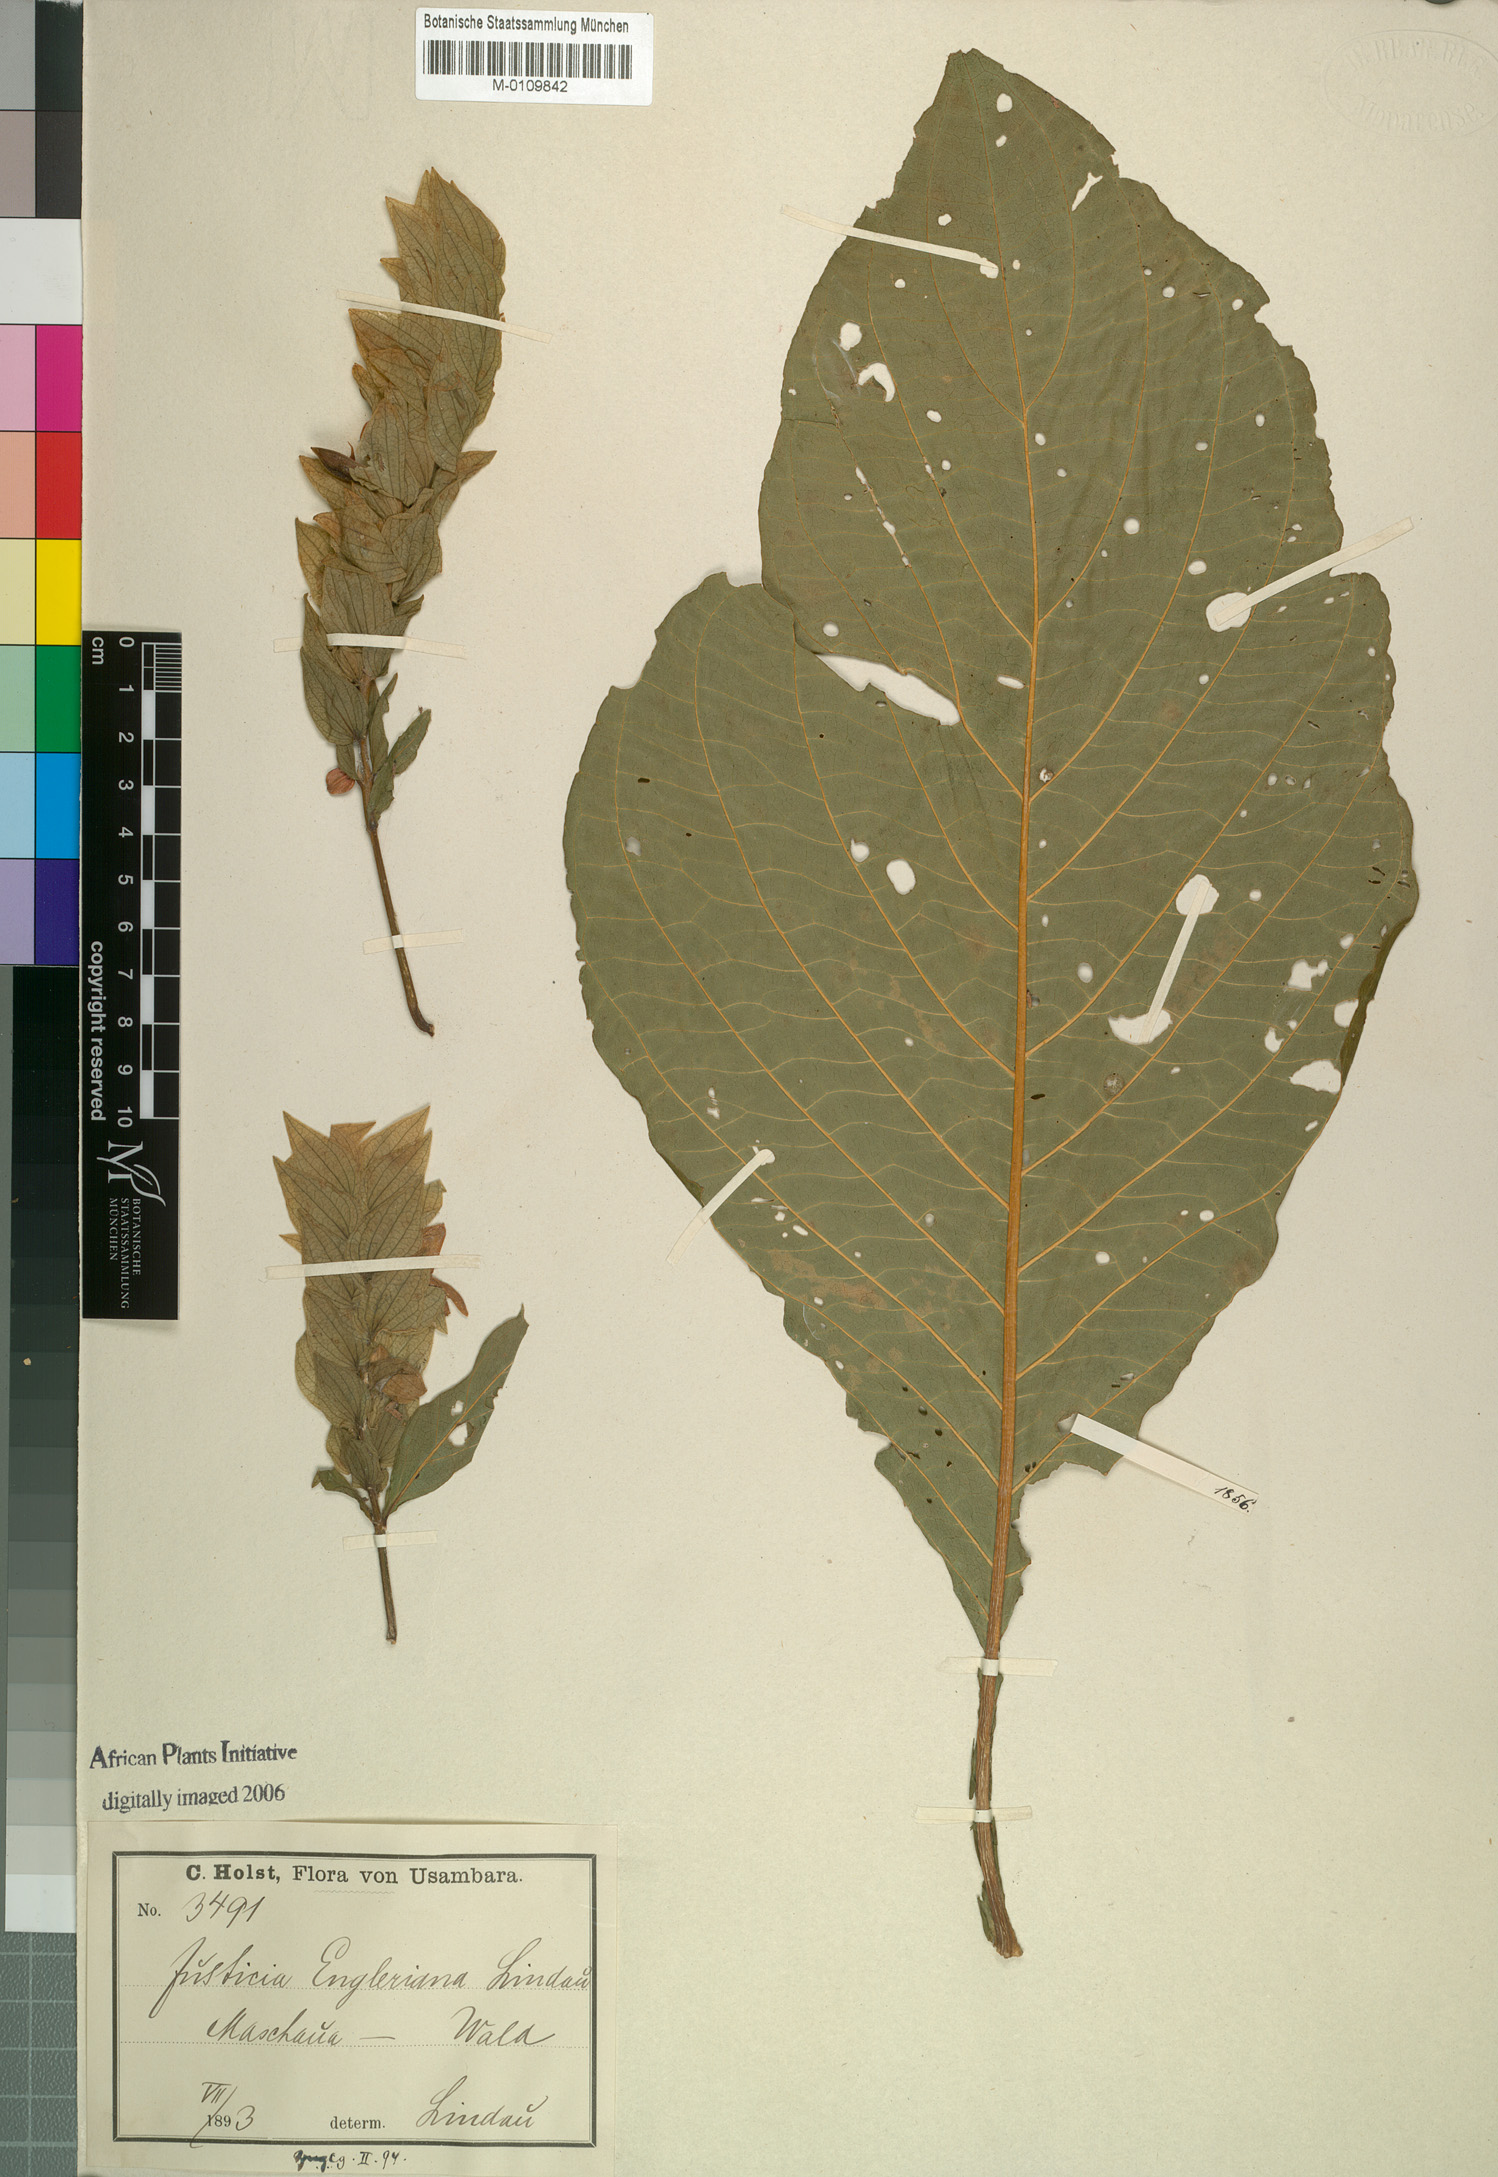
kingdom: Plantae
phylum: Tracheophyta
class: Magnoliopsida
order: Lamiales
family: Acanthaceae
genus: Justicia
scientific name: Justicia engleriana
